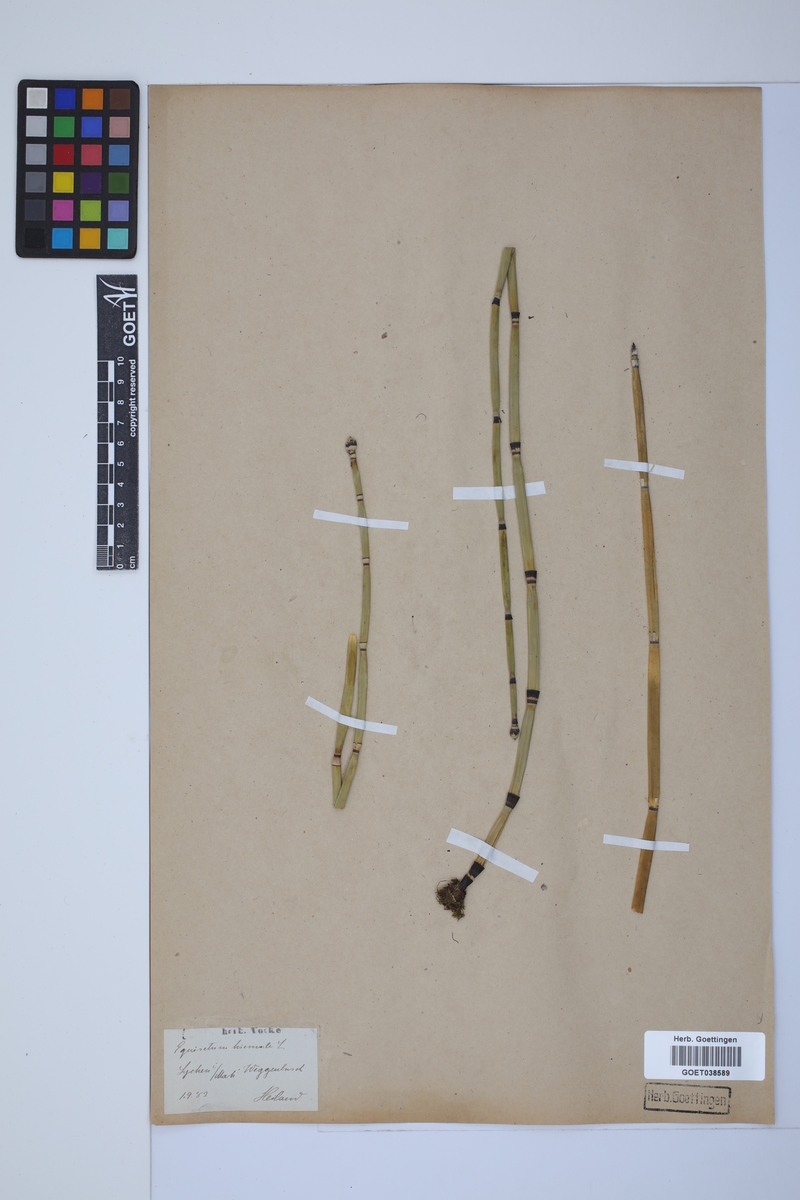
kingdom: Plantae
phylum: Tracheophyta
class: Polypodiopsida
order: Equisetales
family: Equisetaceae
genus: Equisetum
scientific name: Equisetum hyemale
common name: Rough horsetail
